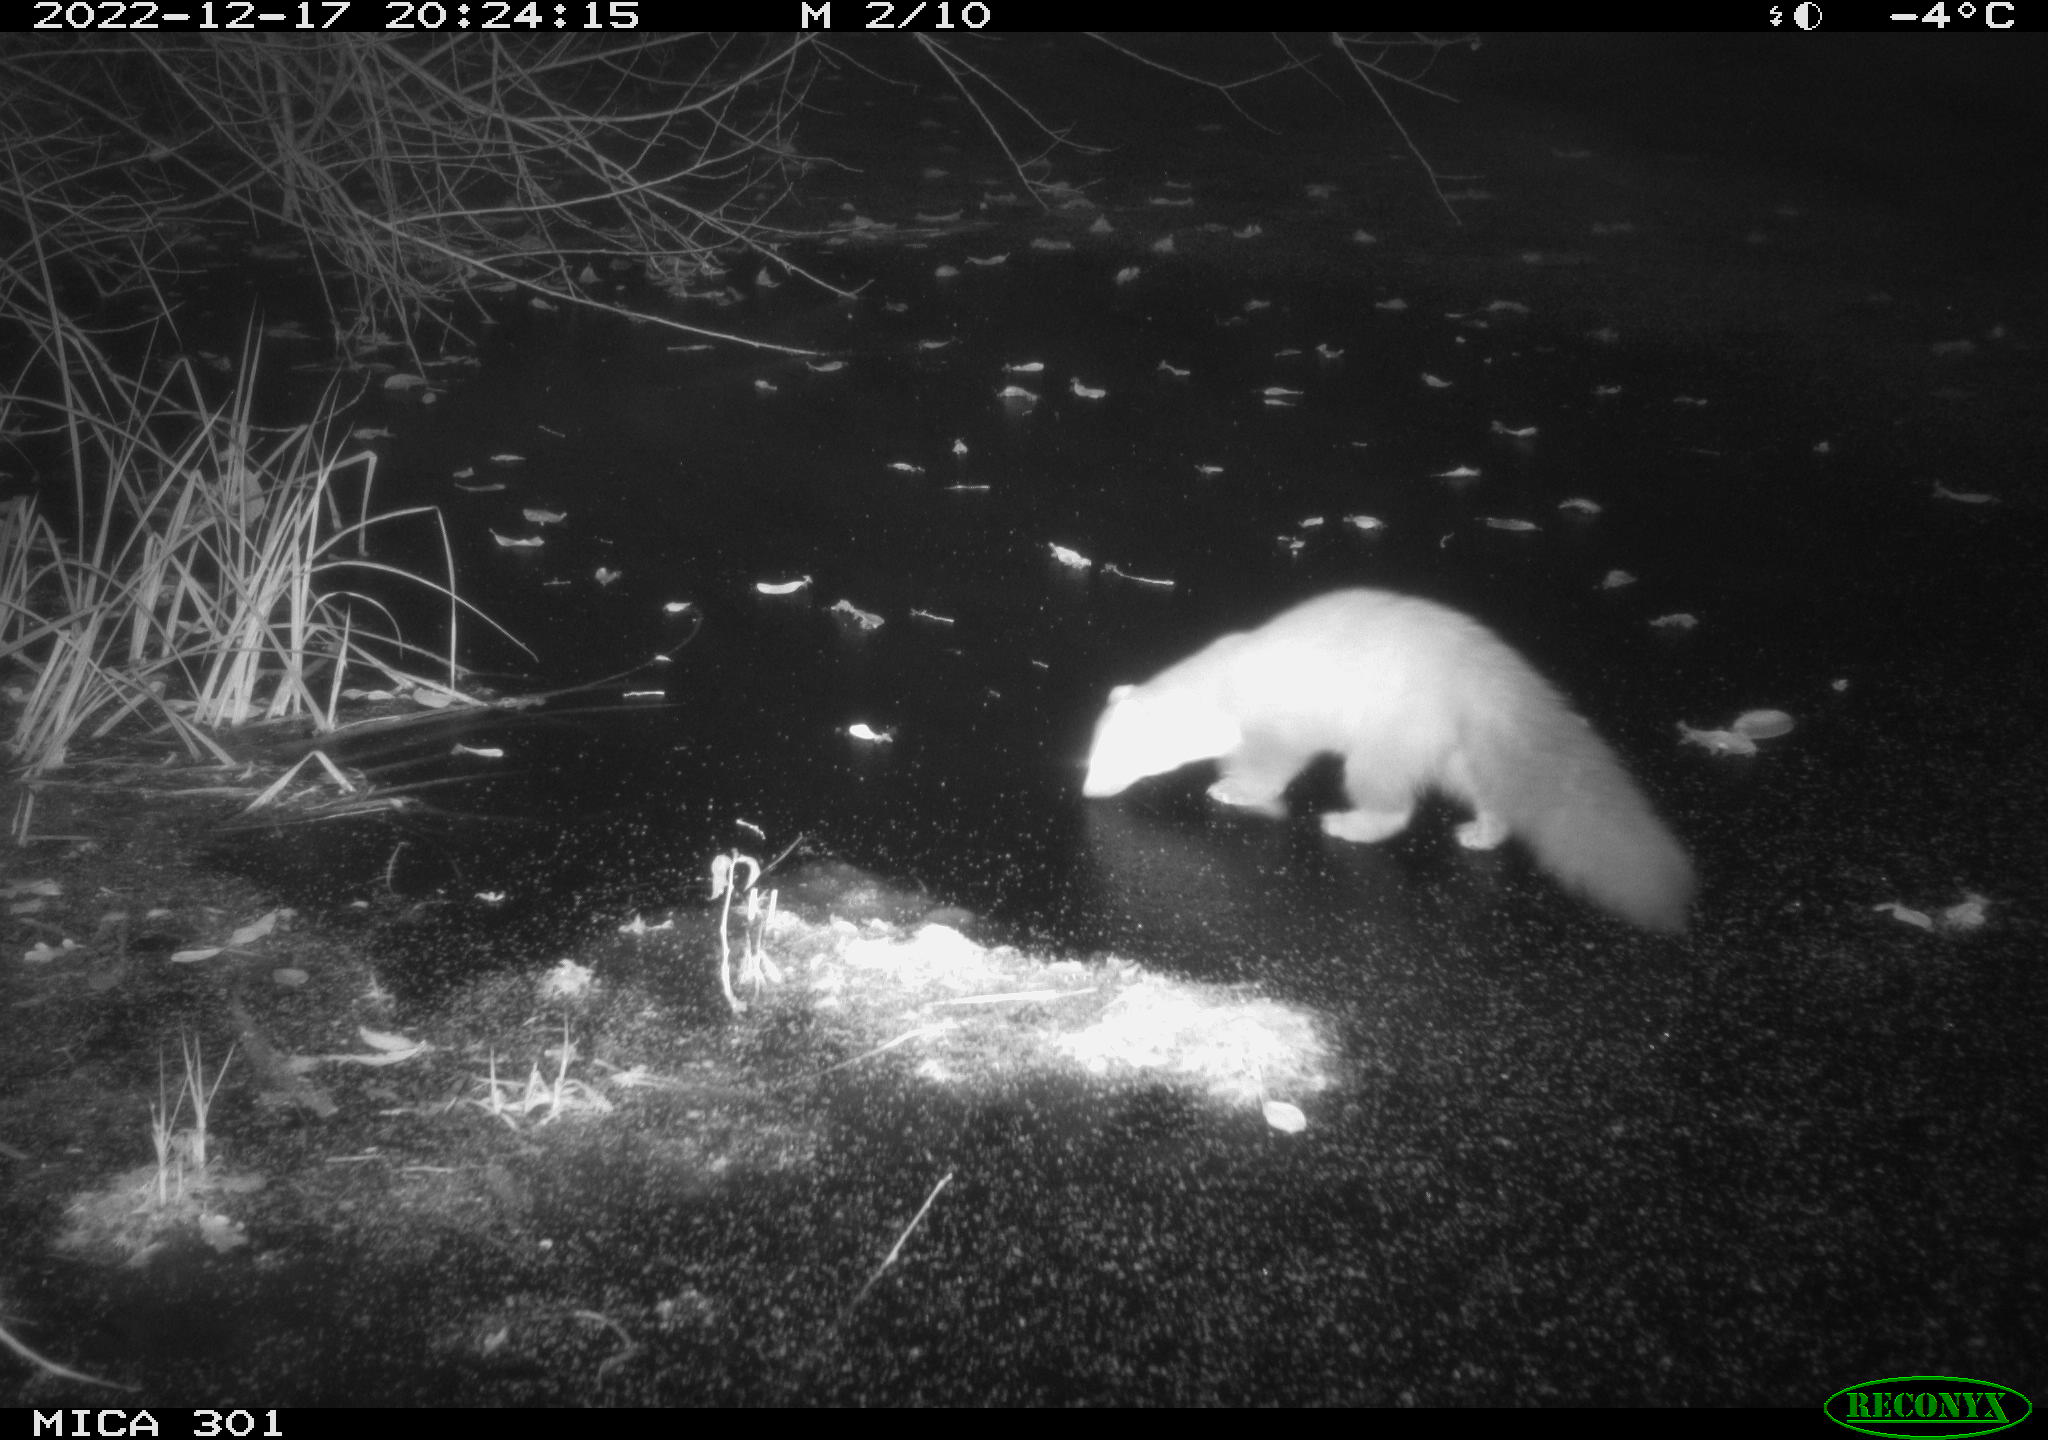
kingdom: Animalia
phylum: Chordata
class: Mammalia
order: Carnivora
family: Mustelidae
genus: Martes
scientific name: Martes foina
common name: Beech marten
